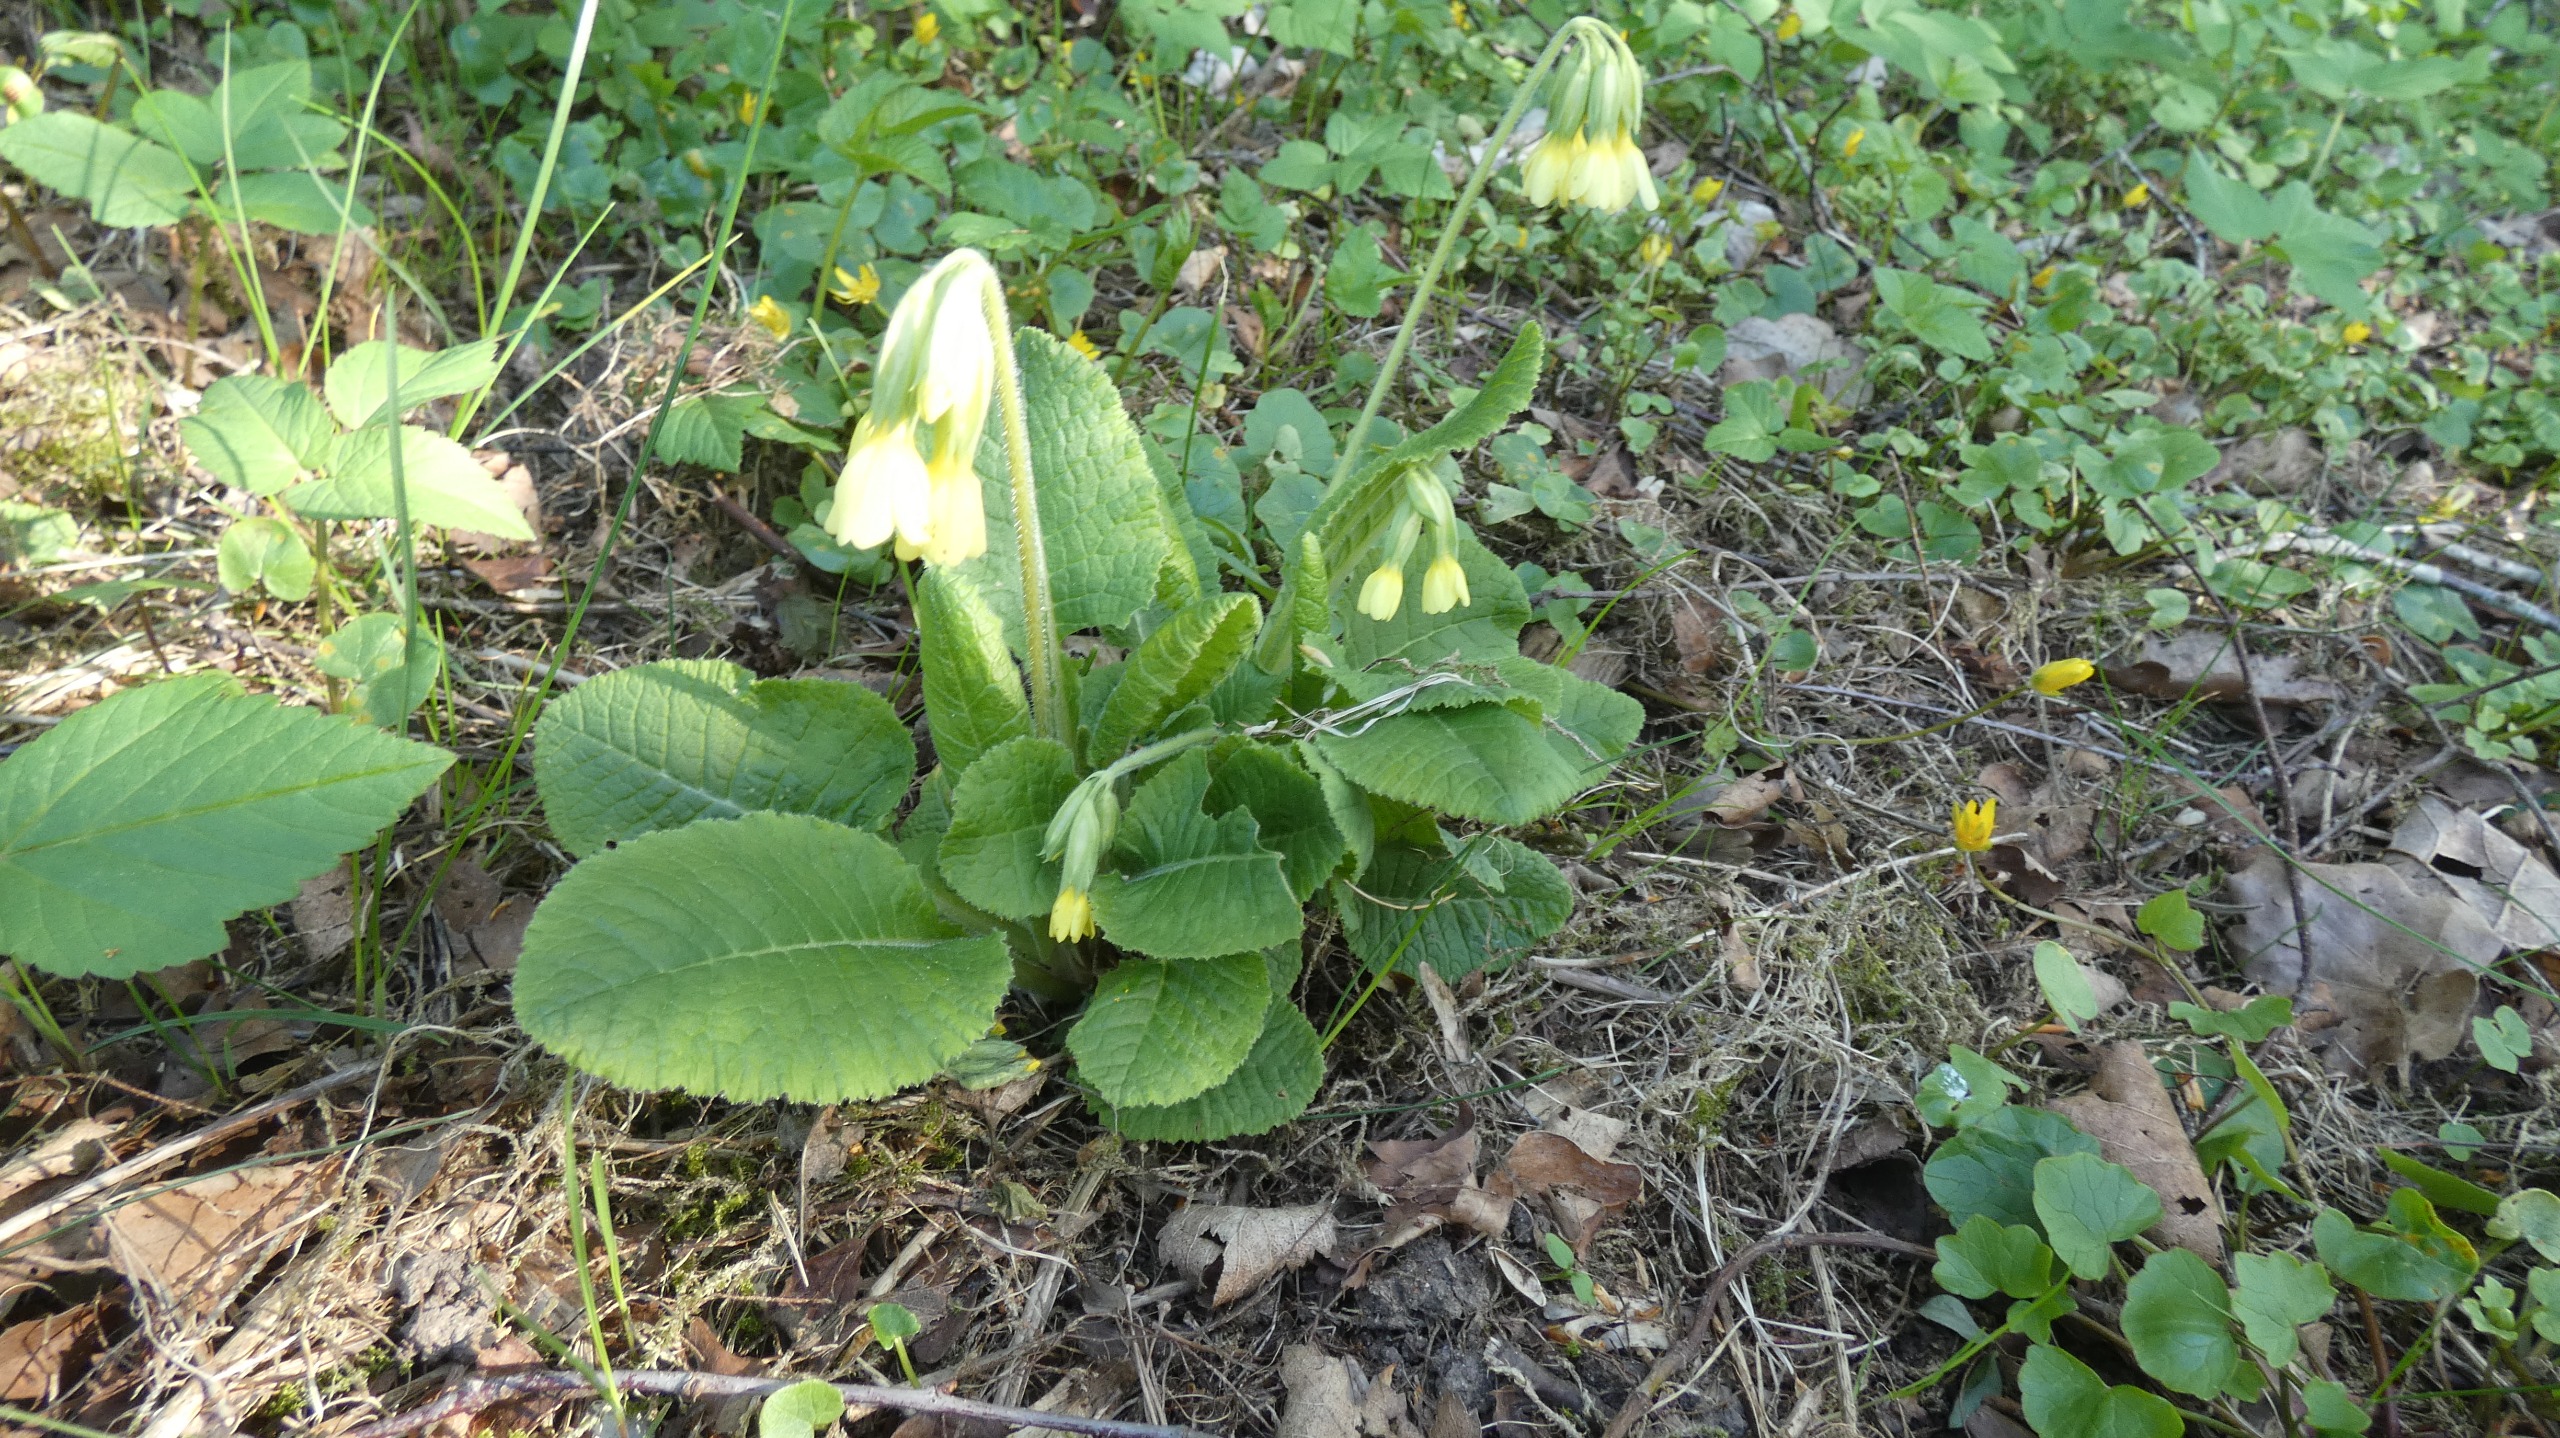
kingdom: Plantae
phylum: Tracheophyta
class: Magnoliopsida
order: Ericales
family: Primulaceae
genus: Primula
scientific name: Primula elatior
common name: Fladkravet kodriver
